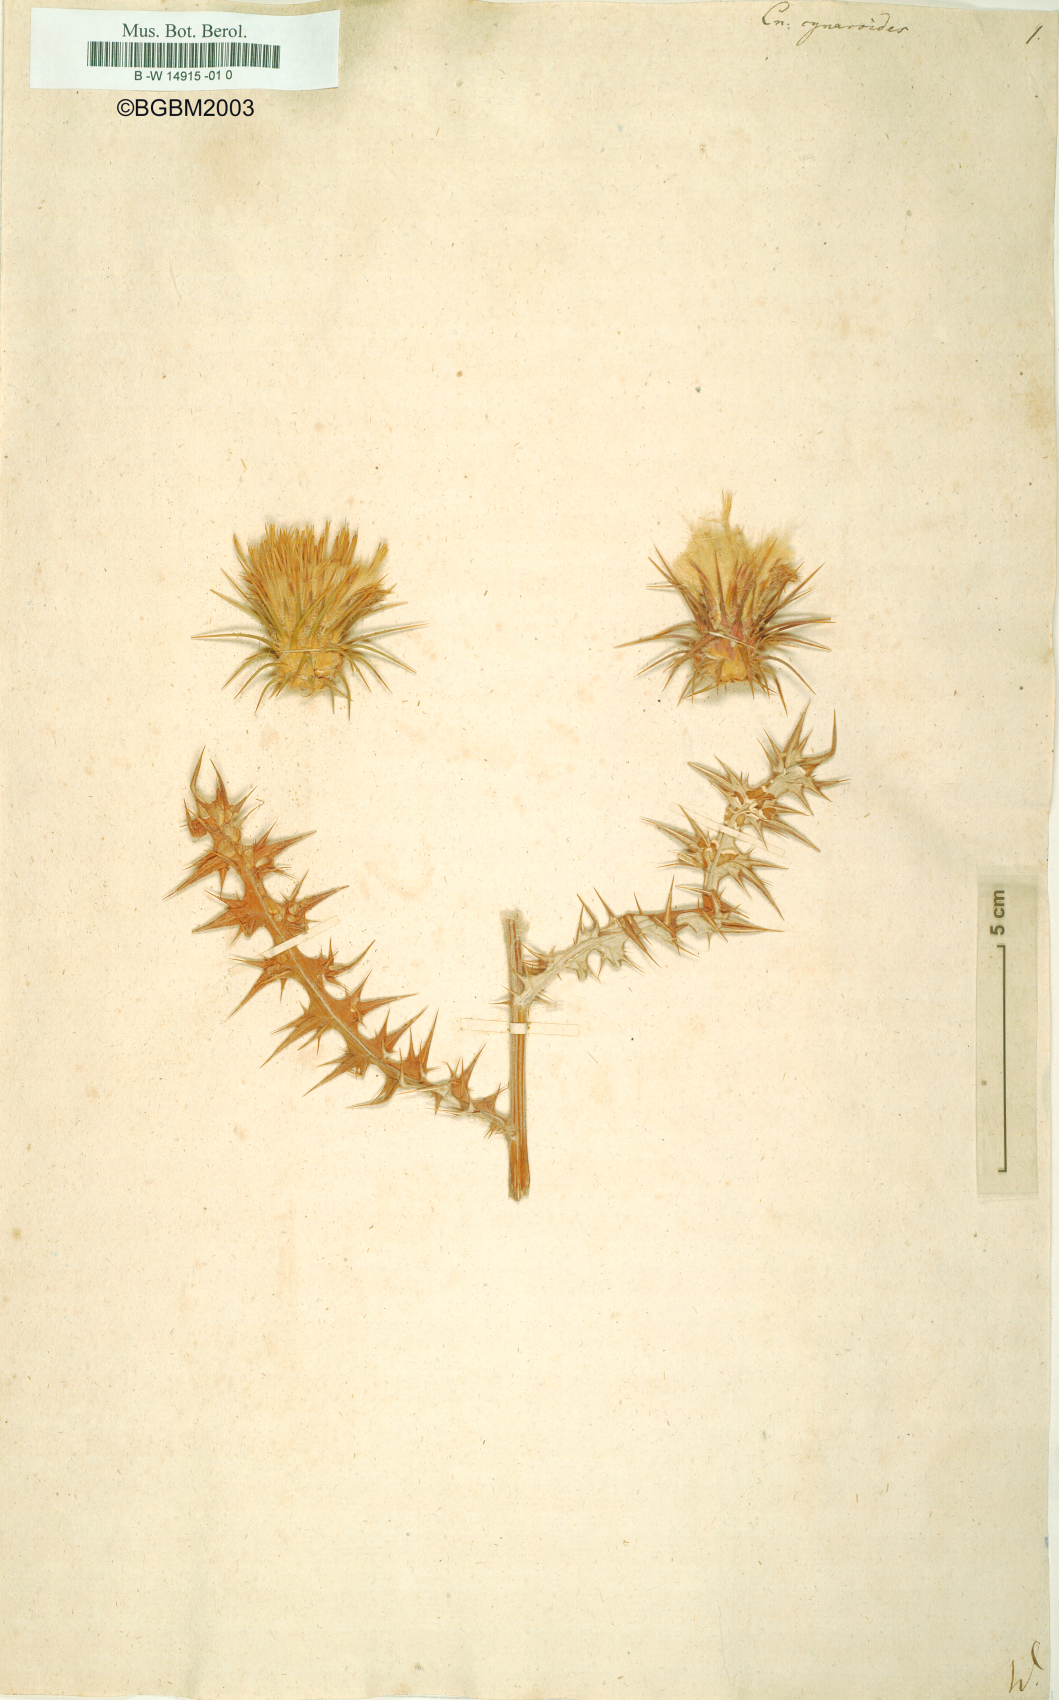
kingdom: Plantae
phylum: Tracheophyta
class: Magnoliopsida
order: Asterales
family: Asteraceae
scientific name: Asteraceae
